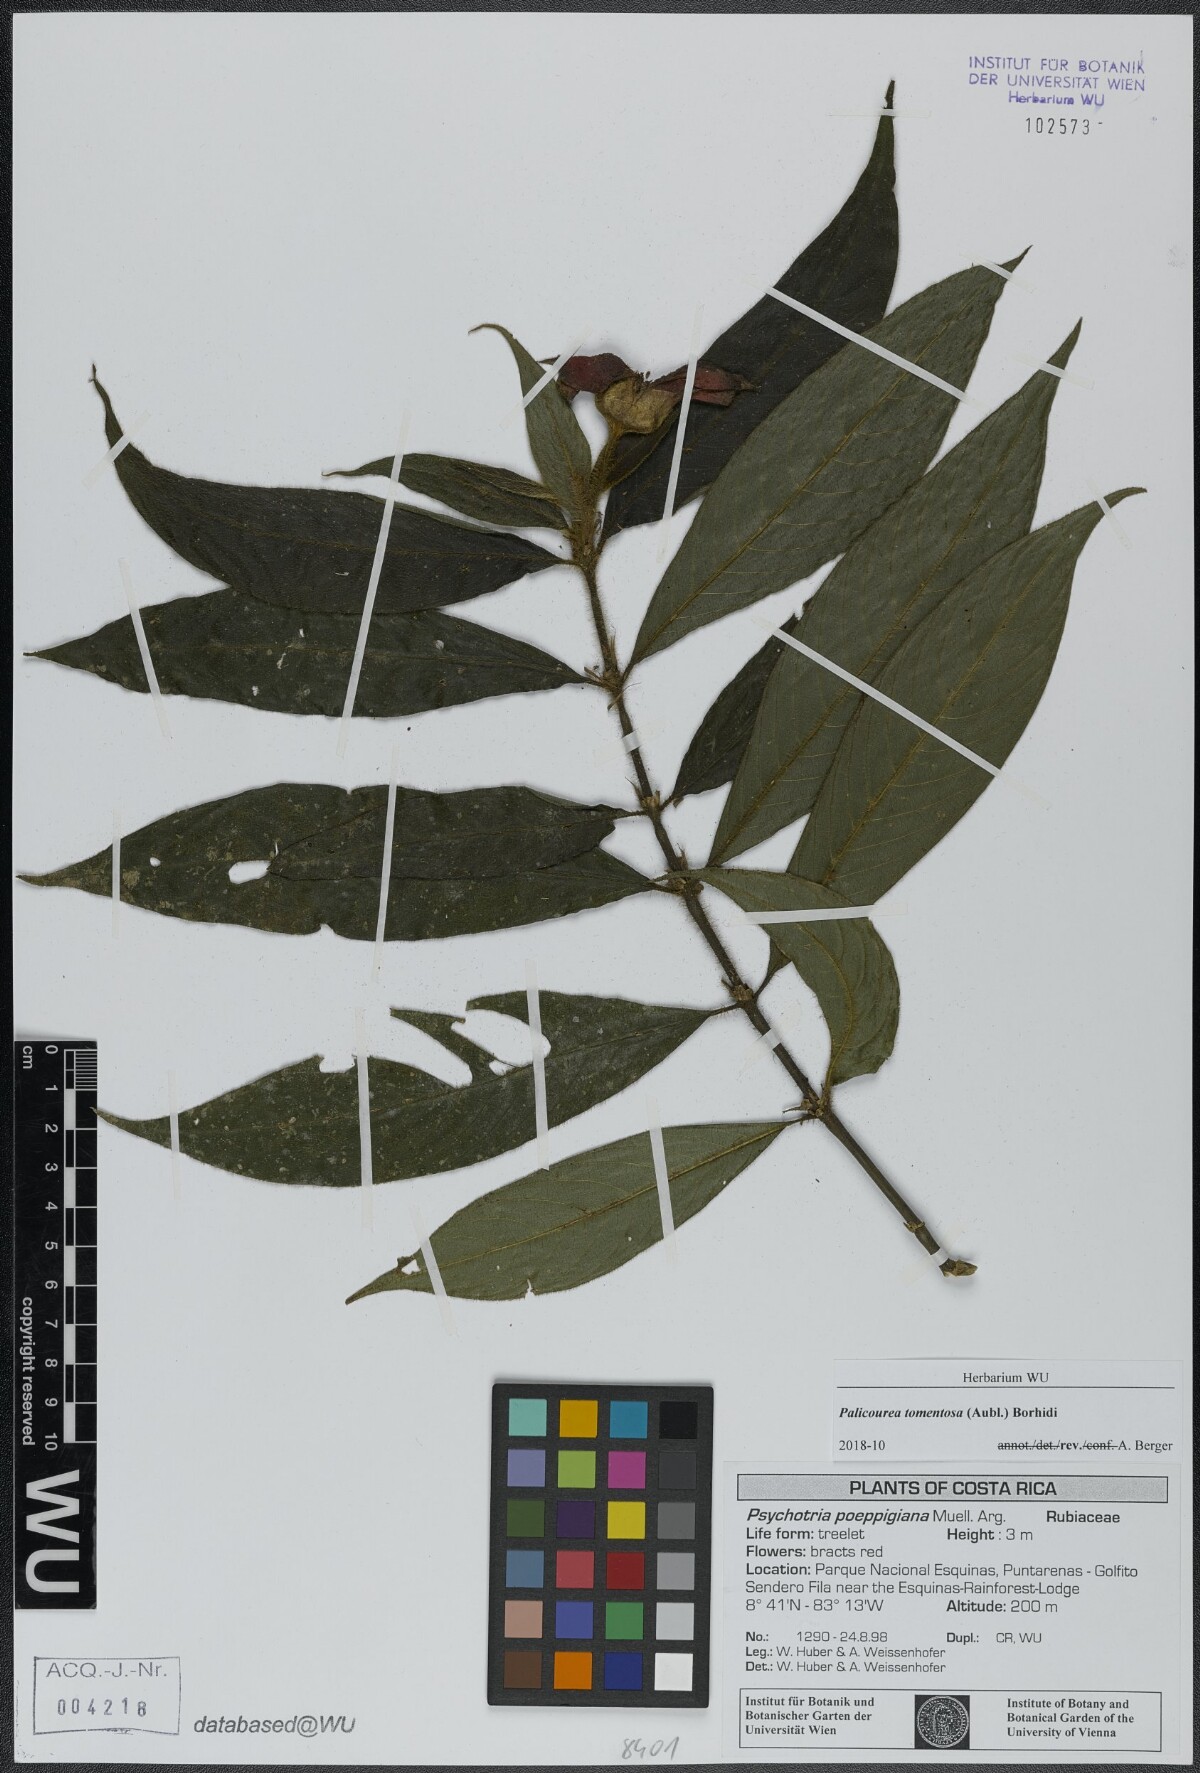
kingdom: Plantae
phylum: Tracheophyta
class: Magnoliopsida
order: Gentianales
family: Rubiaceae
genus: Palicourea
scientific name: Palicourea tomentosa
